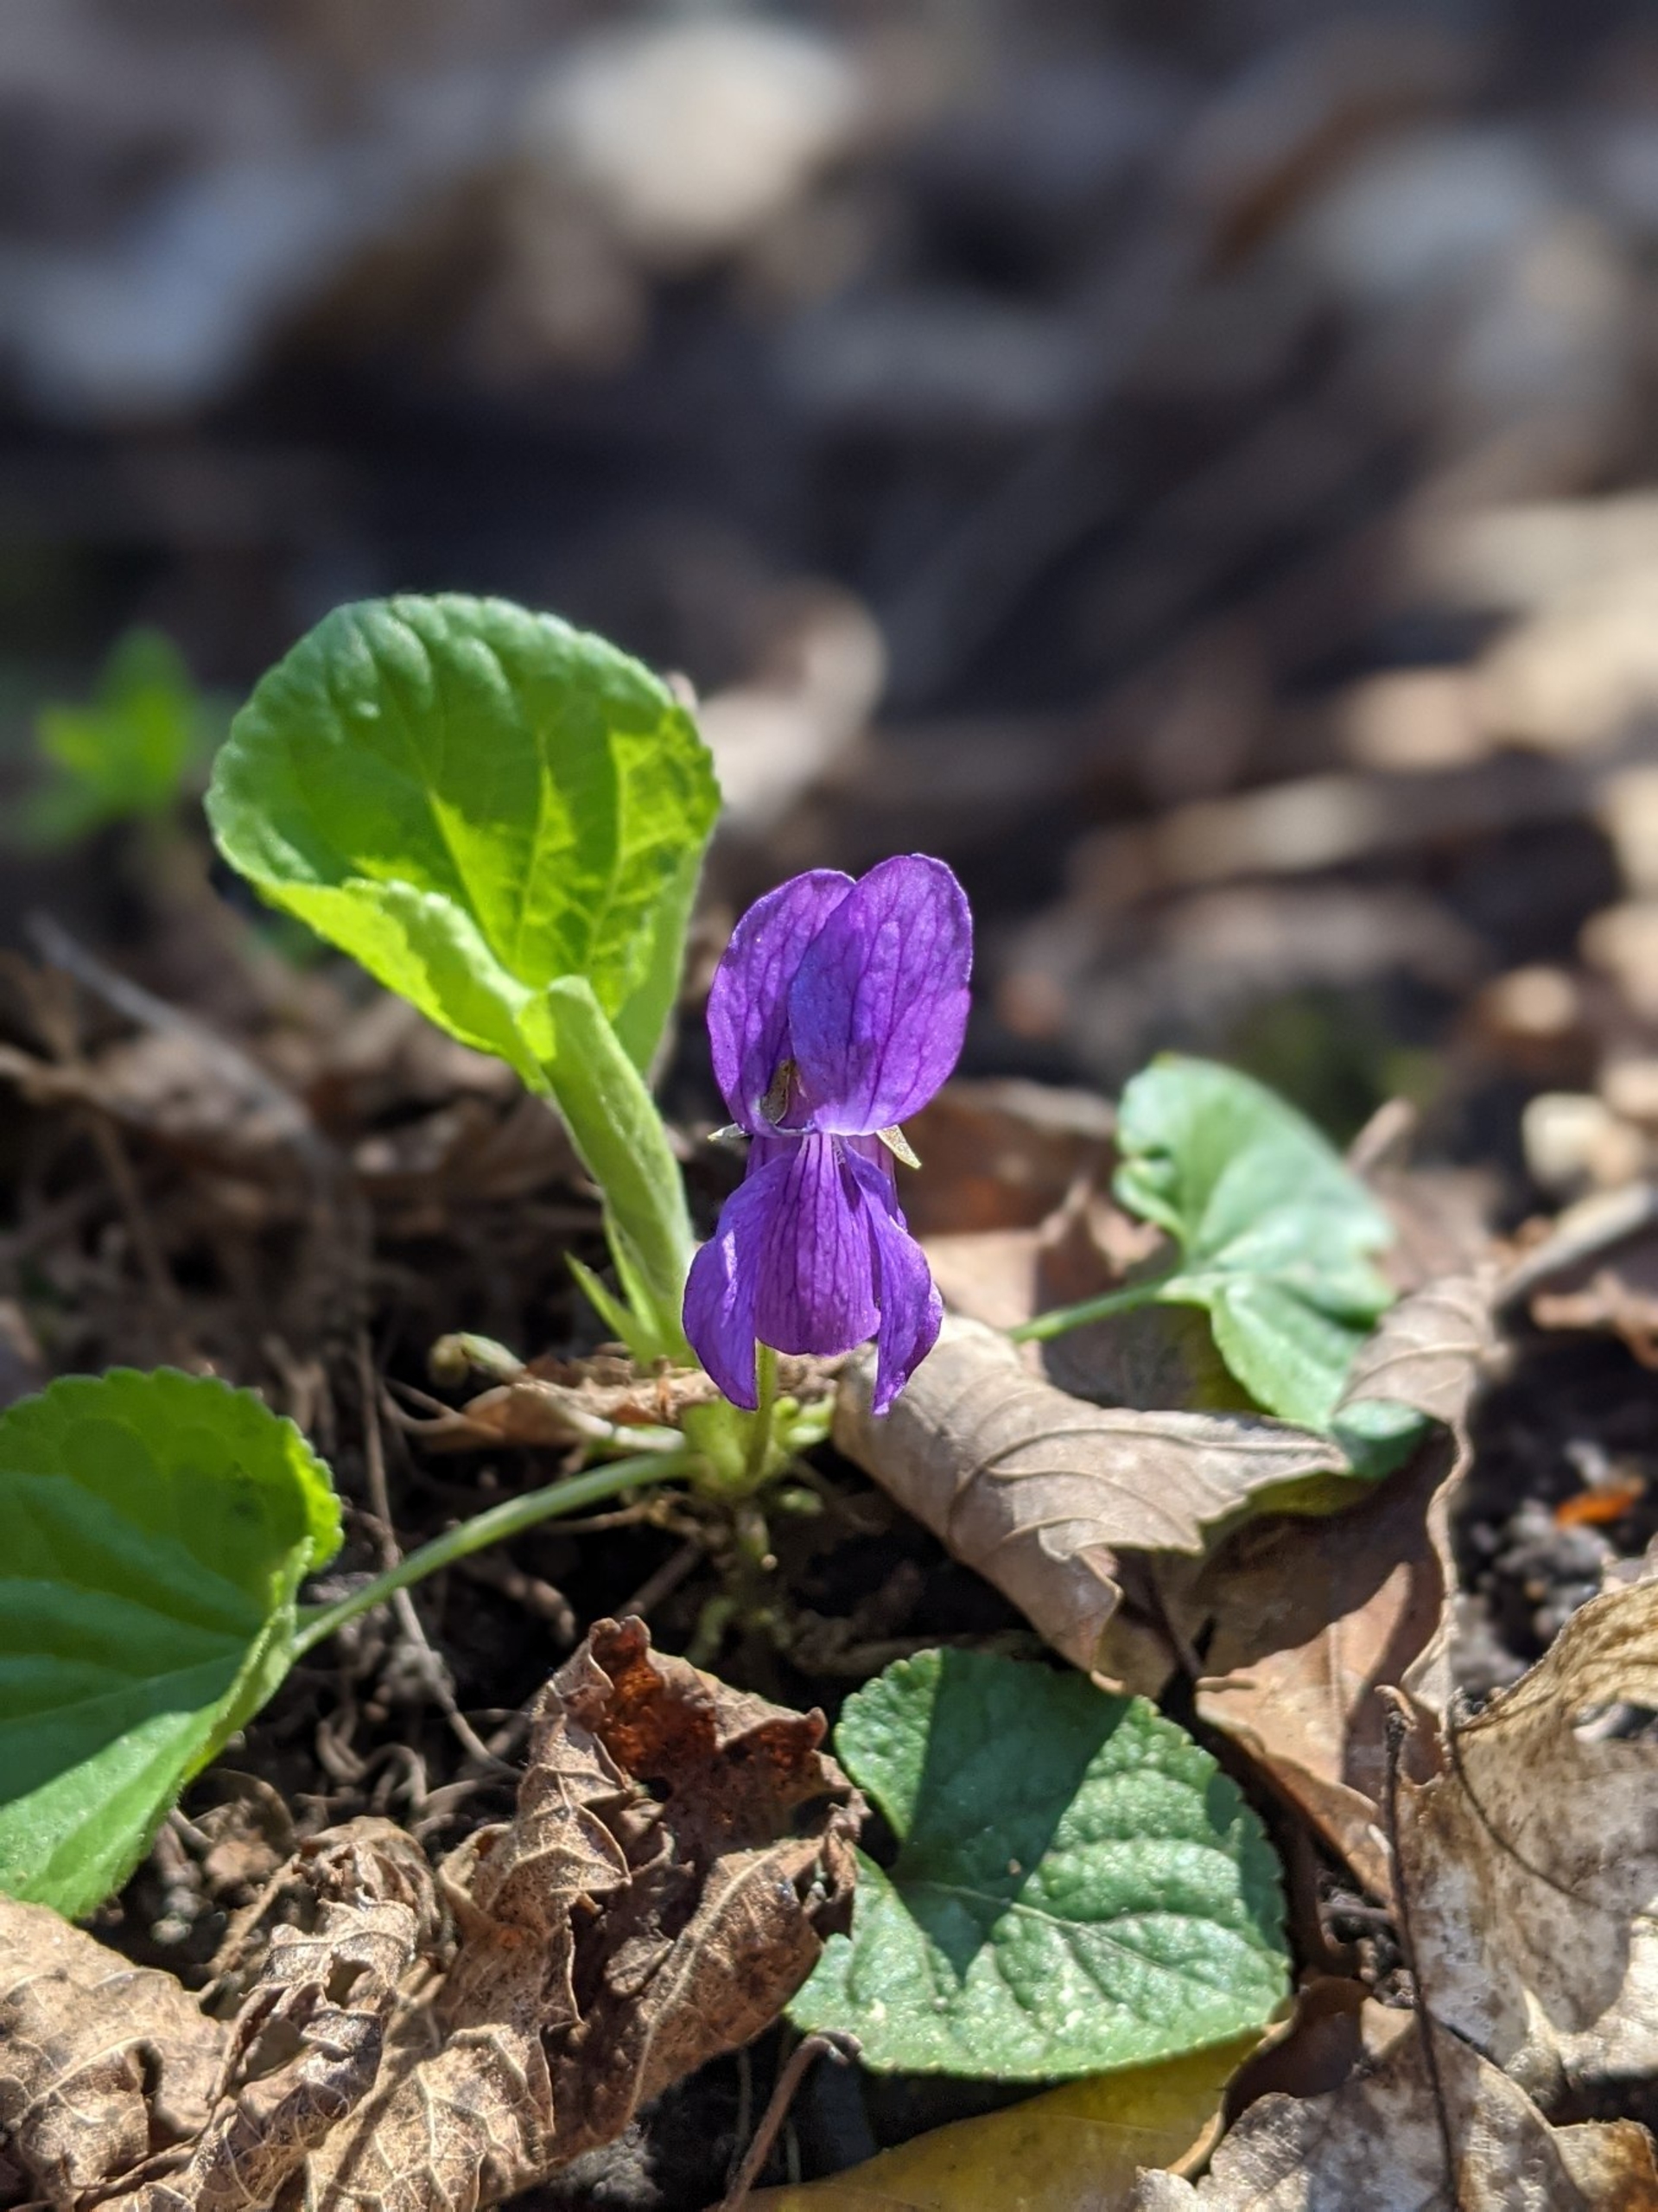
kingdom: Plantae
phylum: Tracheophyta
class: Magnoliopsida
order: Malpighiales
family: Violaceae
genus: Viola
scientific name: Viola odorata
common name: Marts-viol
